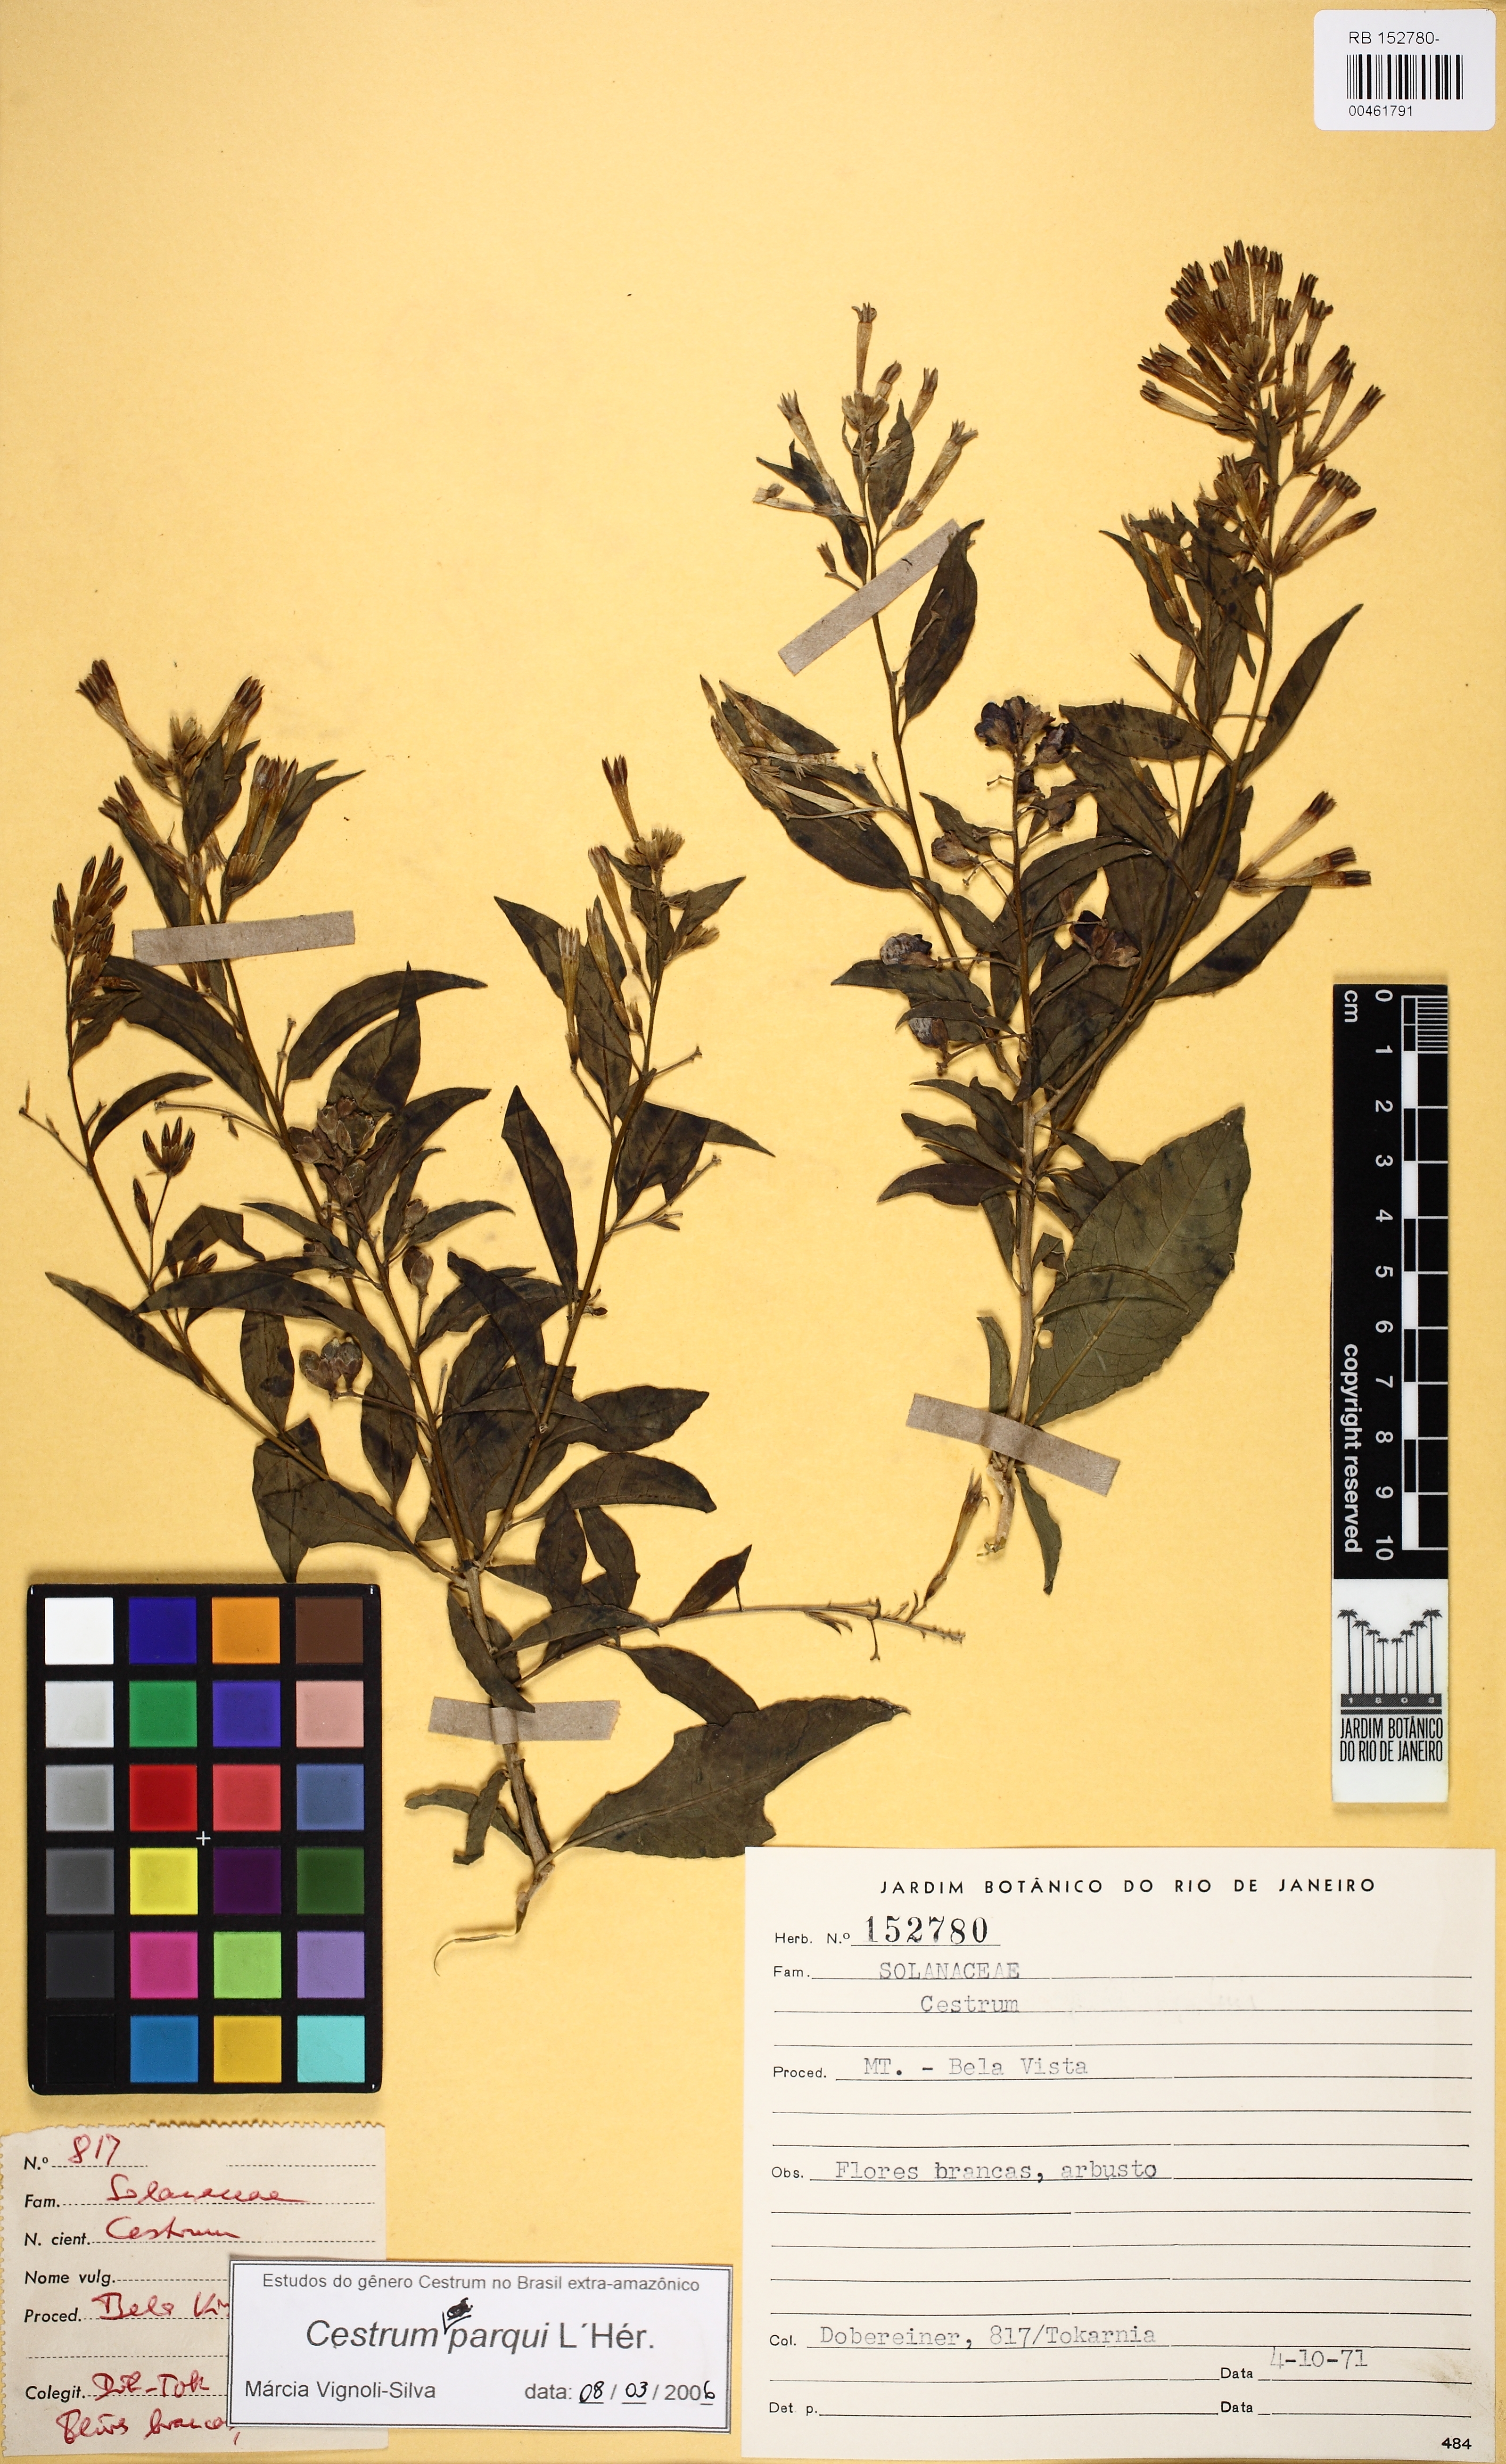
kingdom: Plantae
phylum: Tracheophyta
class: Magnoliopsida
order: Solanales
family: Solanaceae
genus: Cestrum
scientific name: Cestrum thyrsoideum
